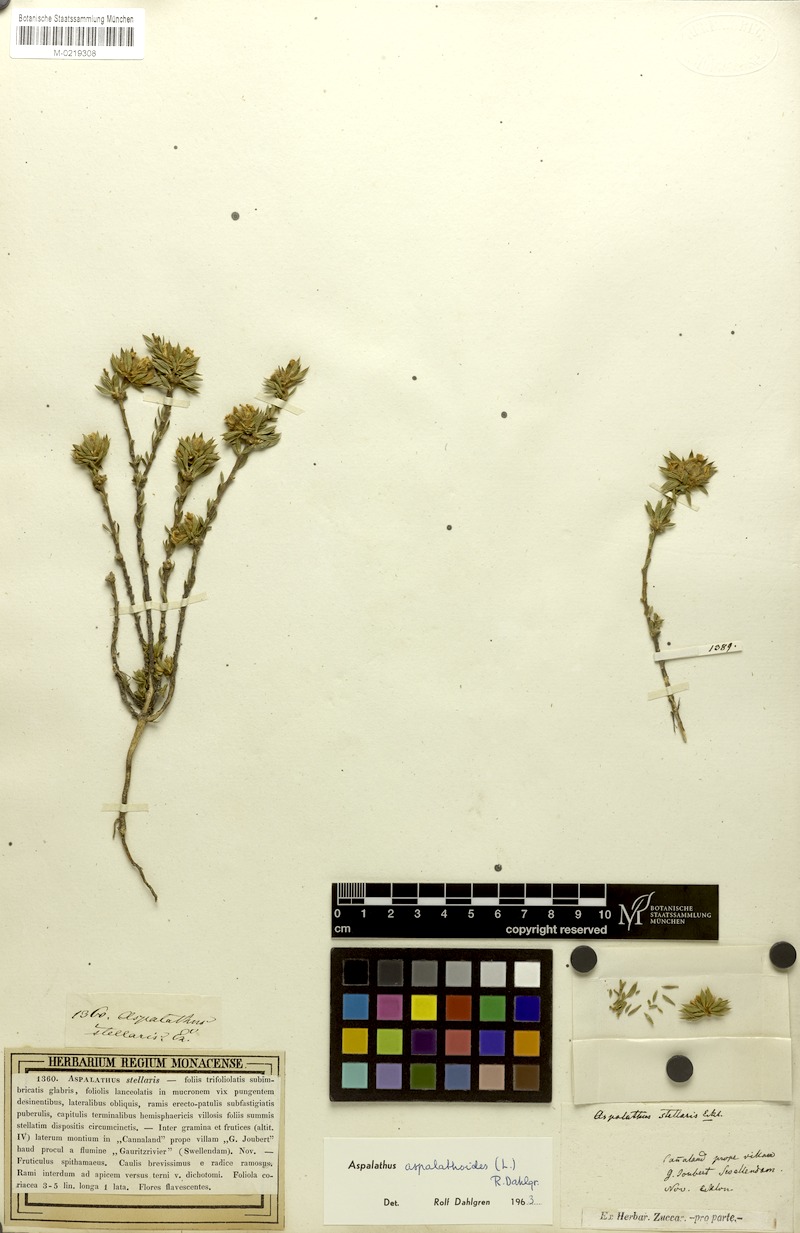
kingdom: Plantae
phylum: Tracheophyta
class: Magnoliopsida
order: Fabales
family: Fabaceae
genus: Aspalathus
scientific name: Aspalathus aspalathoides
